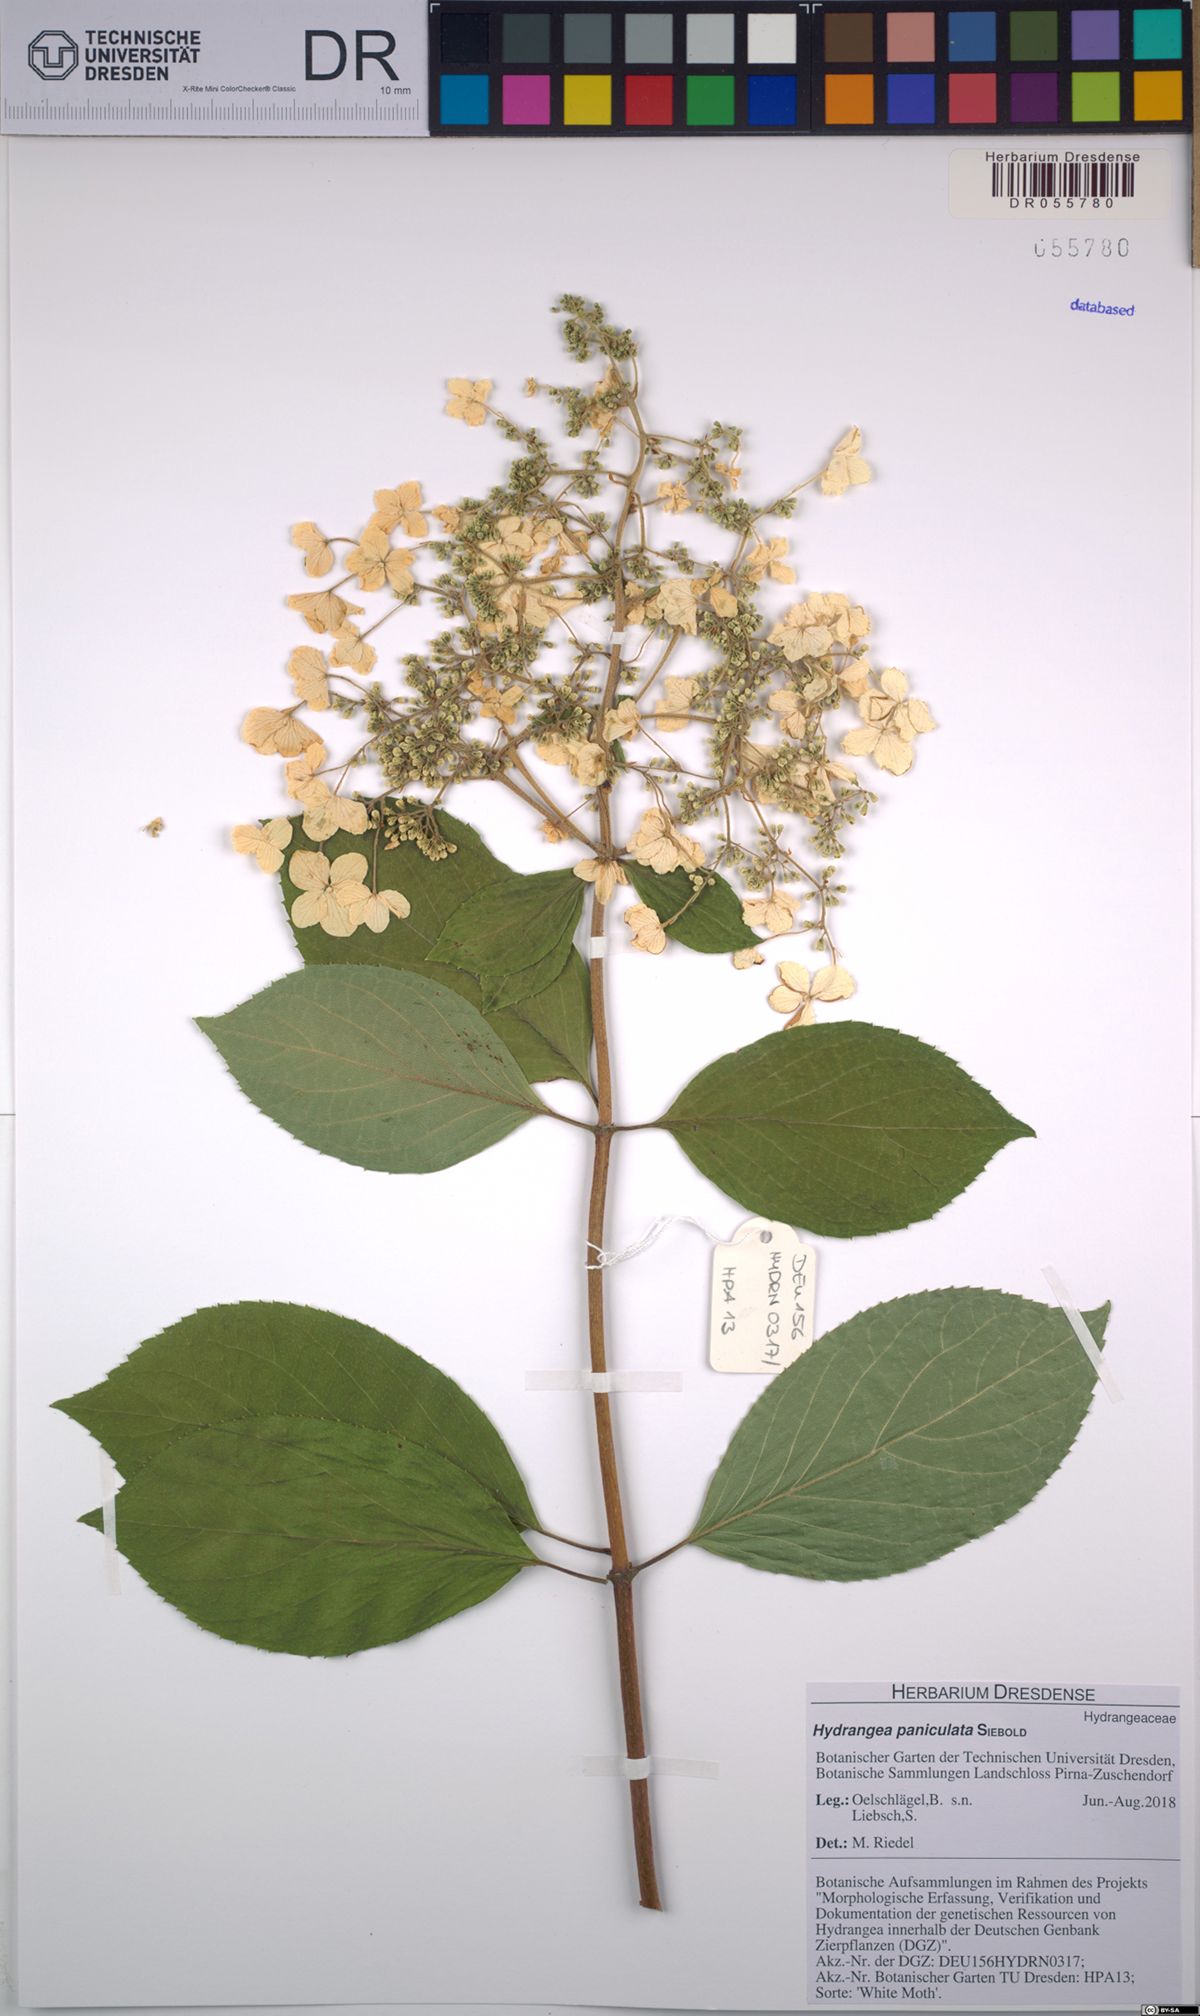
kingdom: Plantae
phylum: Tracheophyta
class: Magnoliopsida
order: Cornales
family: Hydrangeaceae
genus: Hydrangea
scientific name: Hydrangea paniculata
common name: Panicled hydrangea
